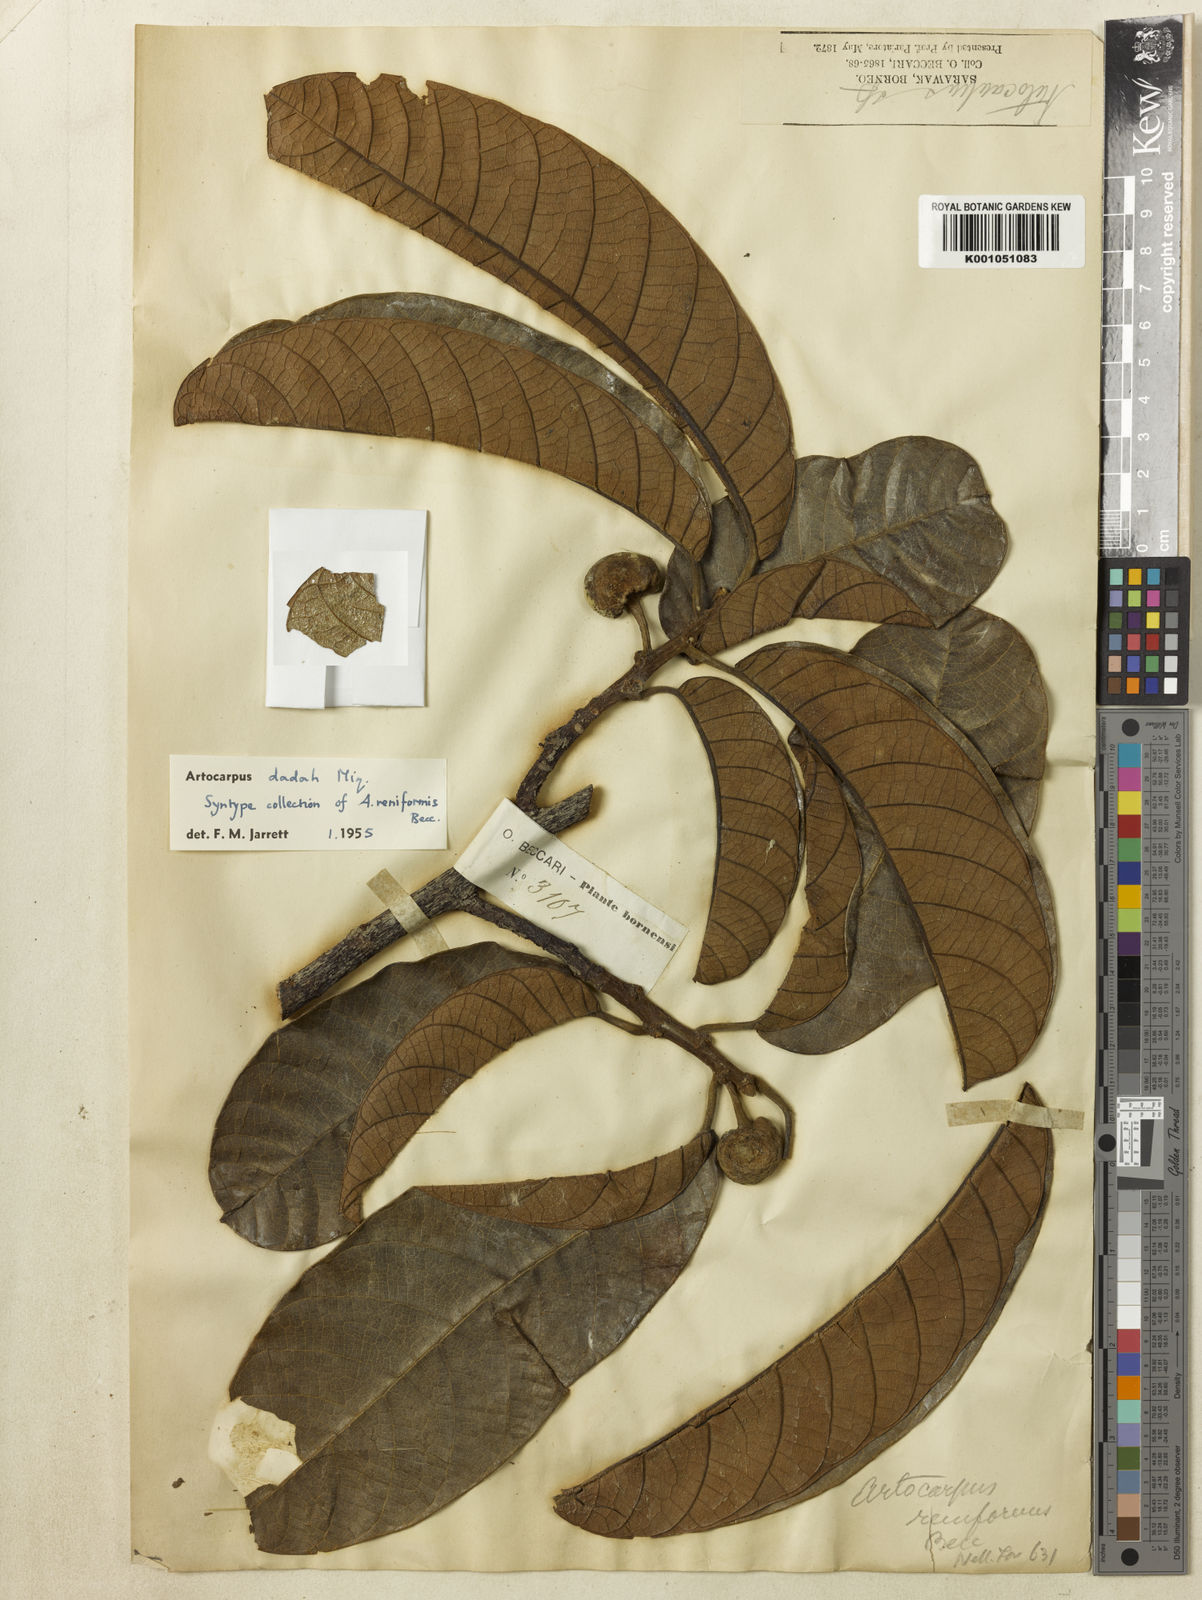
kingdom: Plantae
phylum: Tracheophyta
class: Magnoliopsida
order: Rosales
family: Moraceae
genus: Artocarpus
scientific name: Artocarpus lacucha
